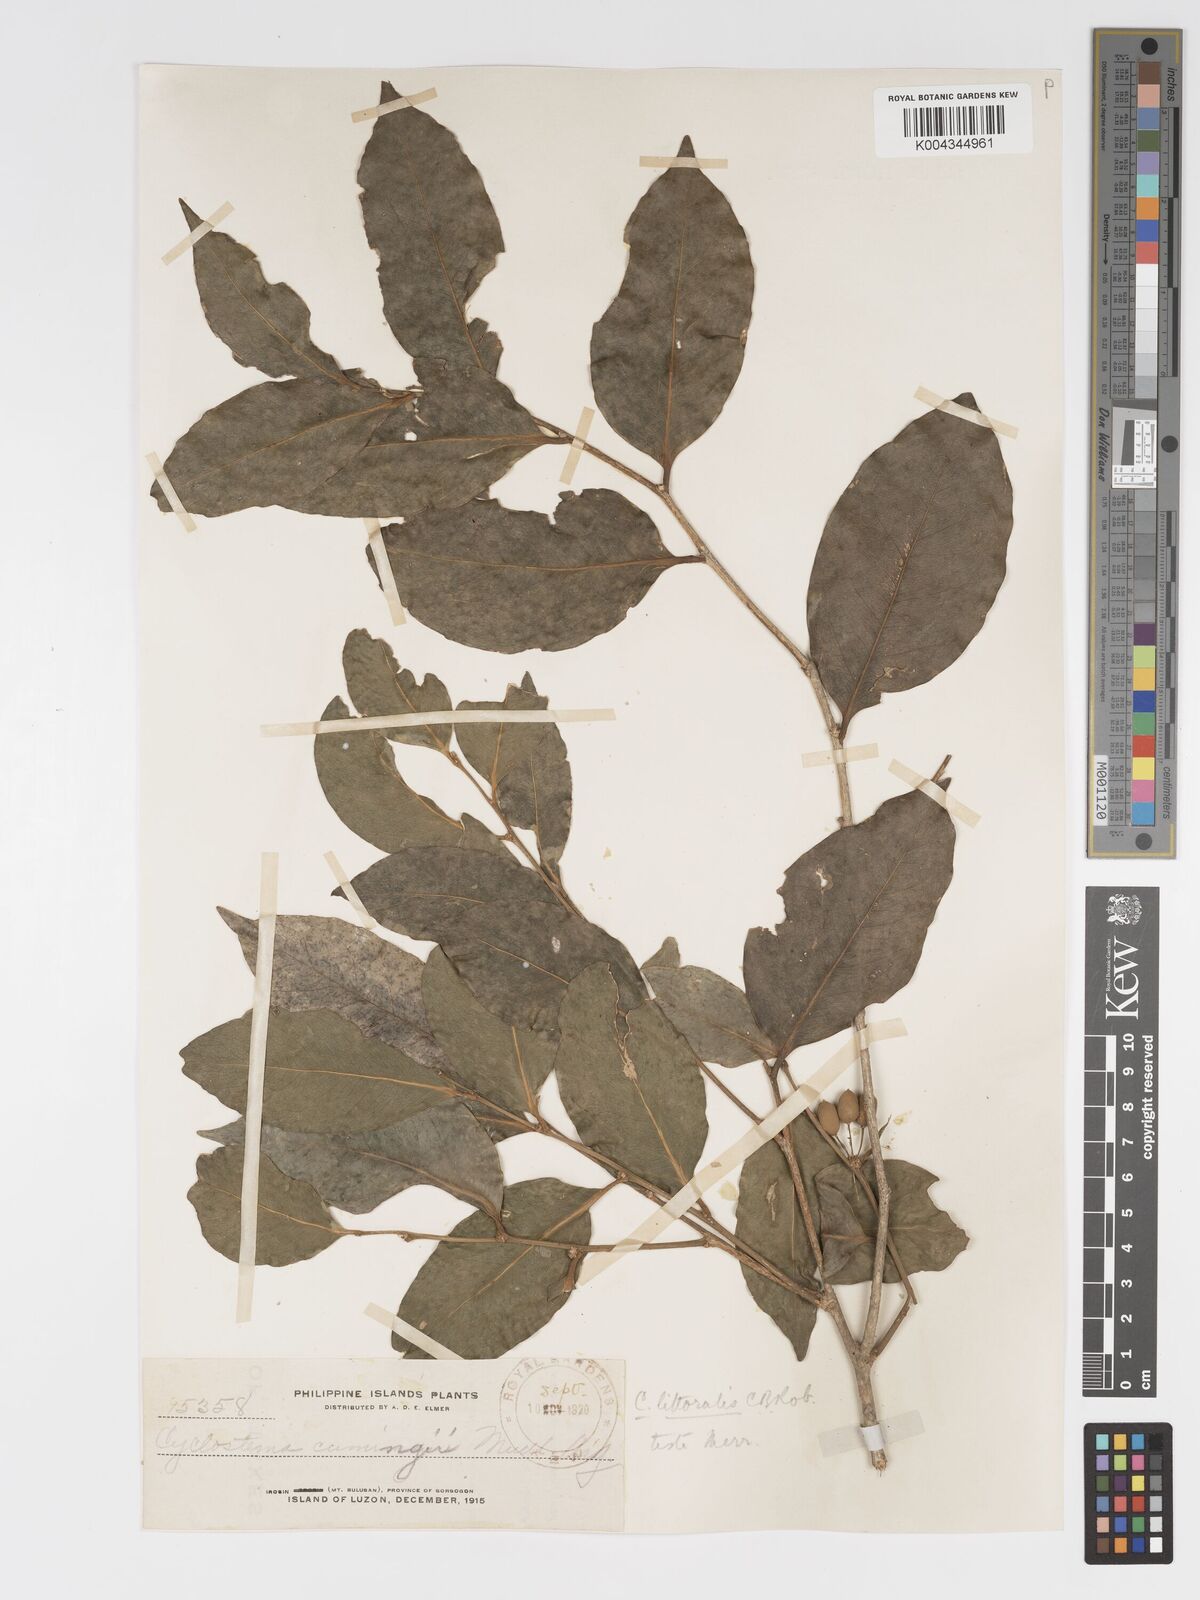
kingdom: Plantae
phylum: Tracheophyta
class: Magnoliopsida
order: Malpighiales
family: Putranjivaceae
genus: Drypetes
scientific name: Drypetes littoralis
